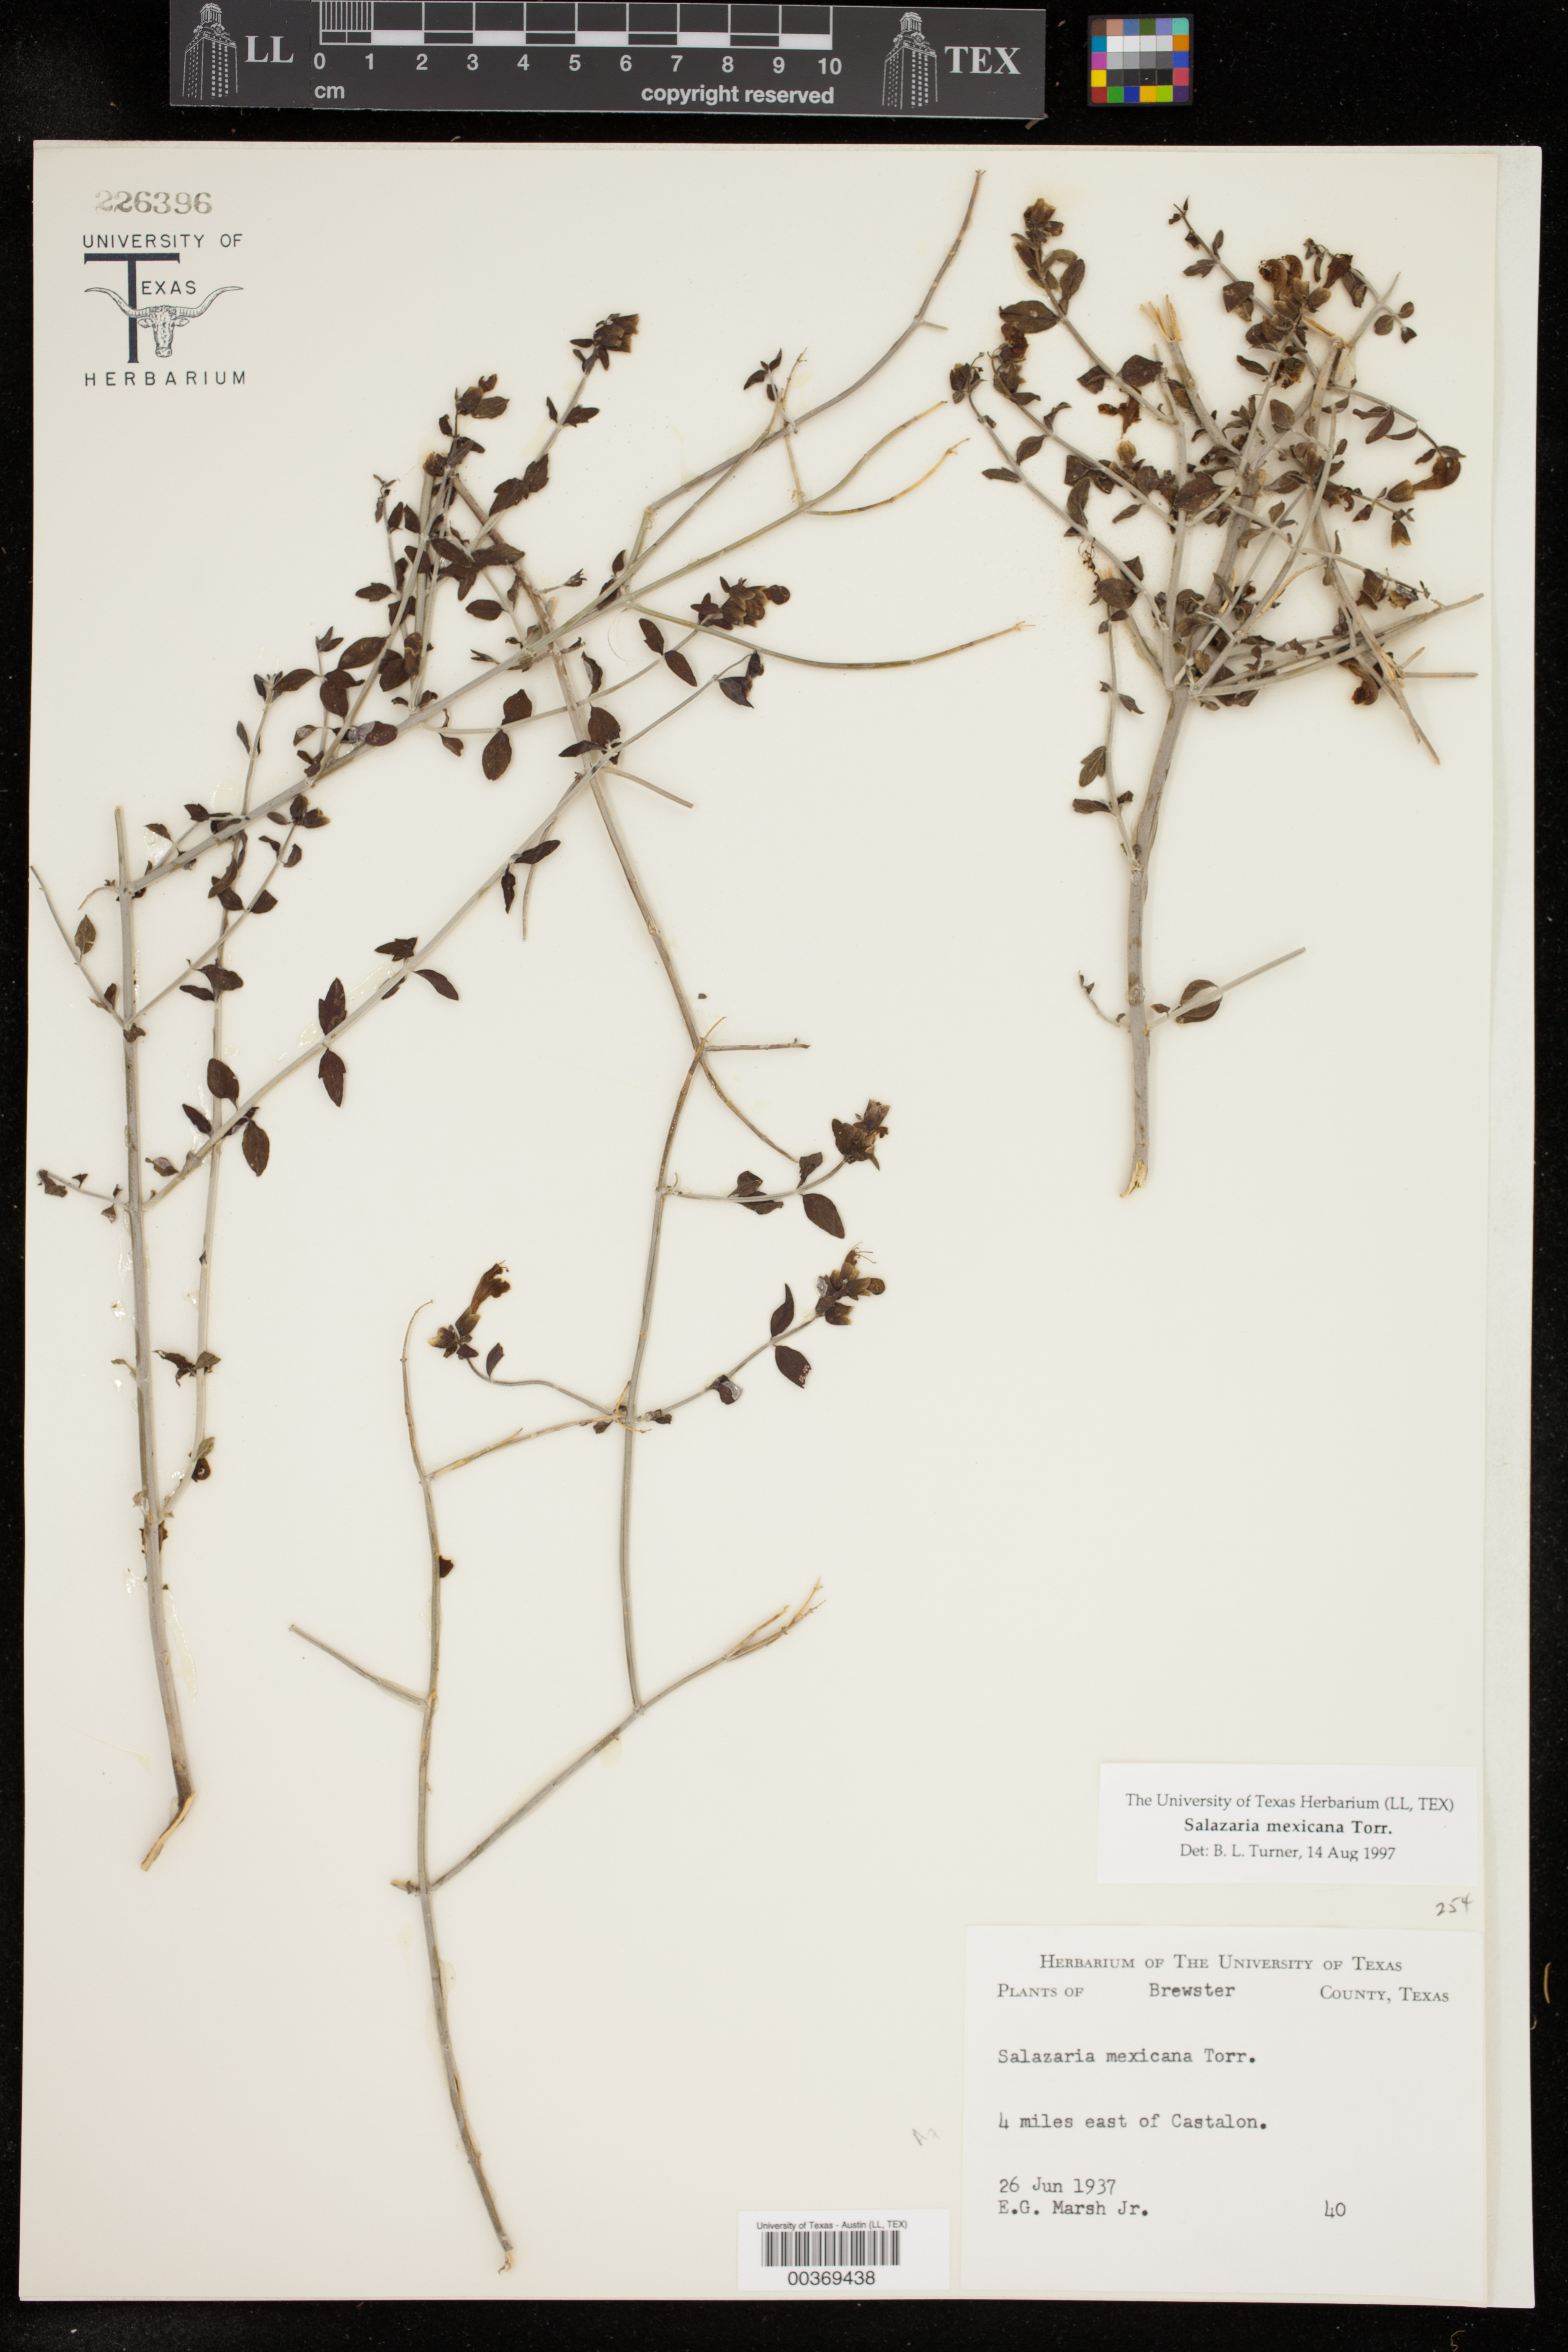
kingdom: Plantae
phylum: Tracheophyta
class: Magnoliopsida
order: Lamiales
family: Lamiaceae
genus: Scutellaria
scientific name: Scutellaria mexicana
